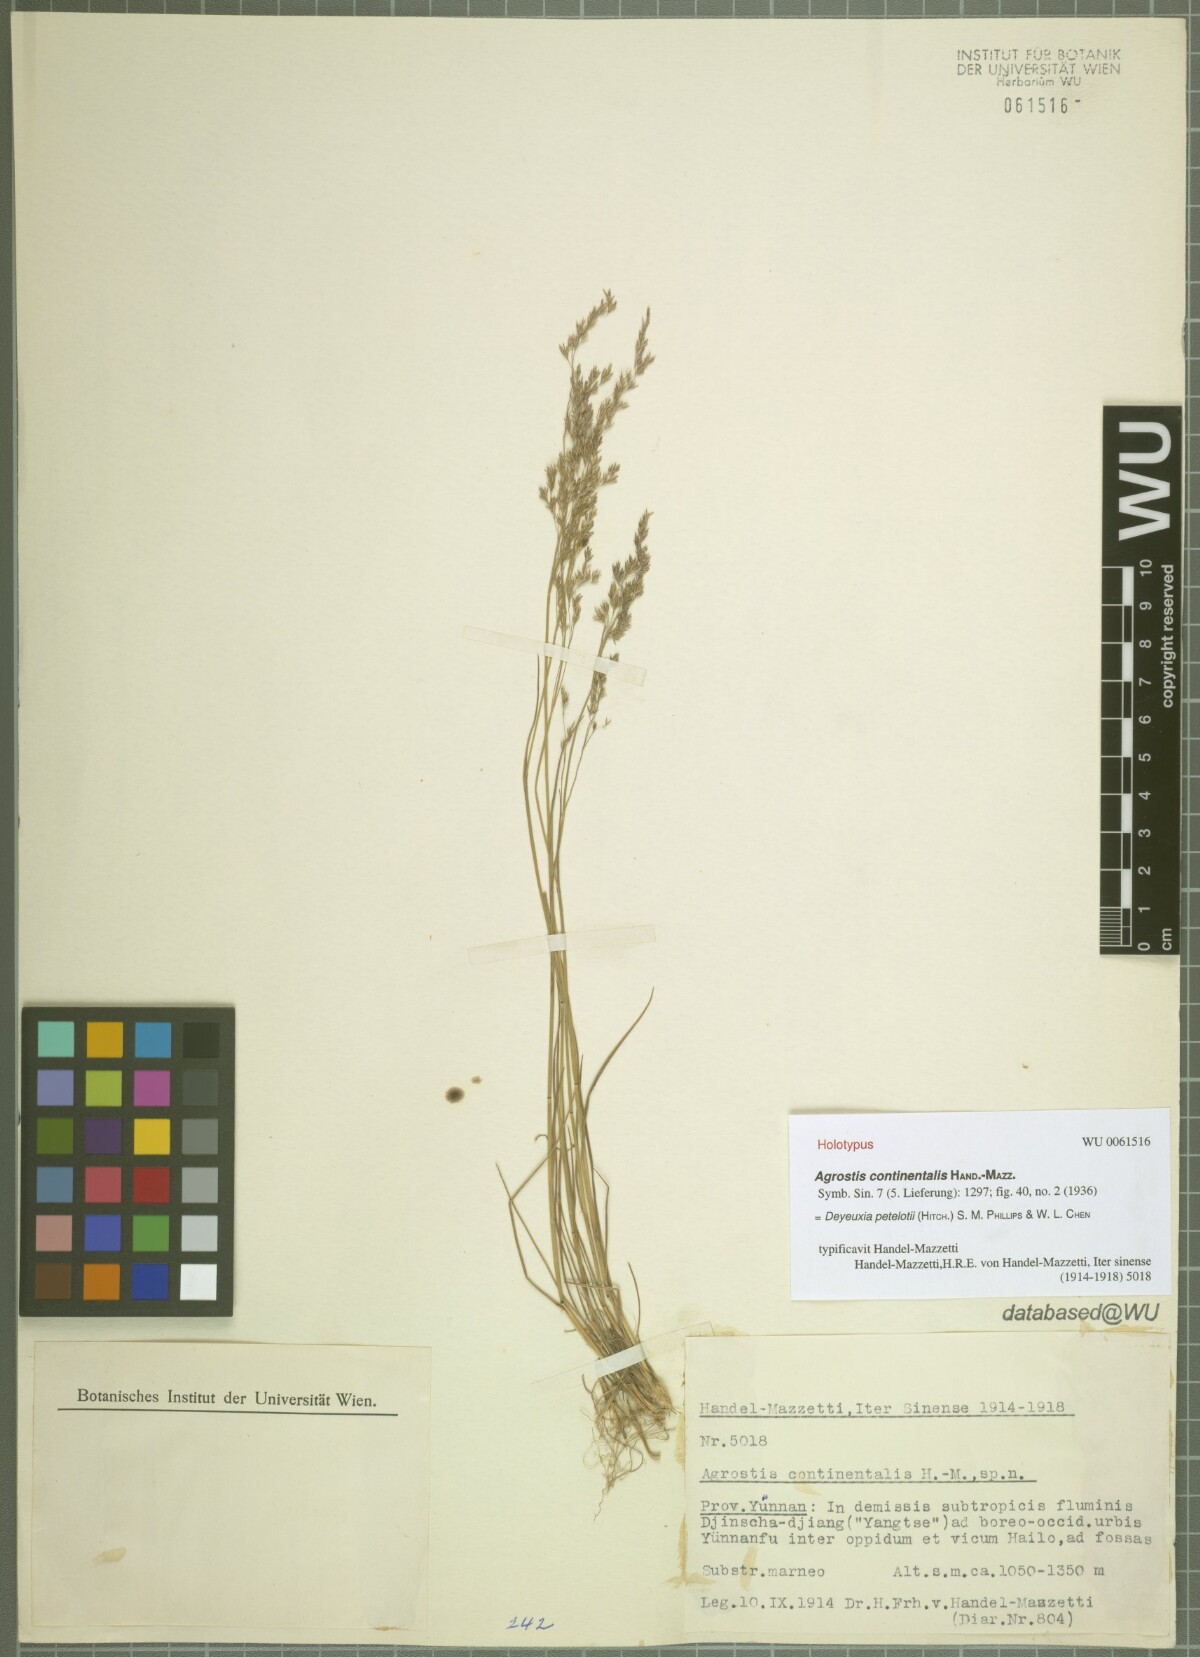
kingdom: Plantae
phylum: Tracheophyta
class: Liliopsida
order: Poales
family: Poaceae
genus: Calamagrostis
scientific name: Calamagrostis abnormis
